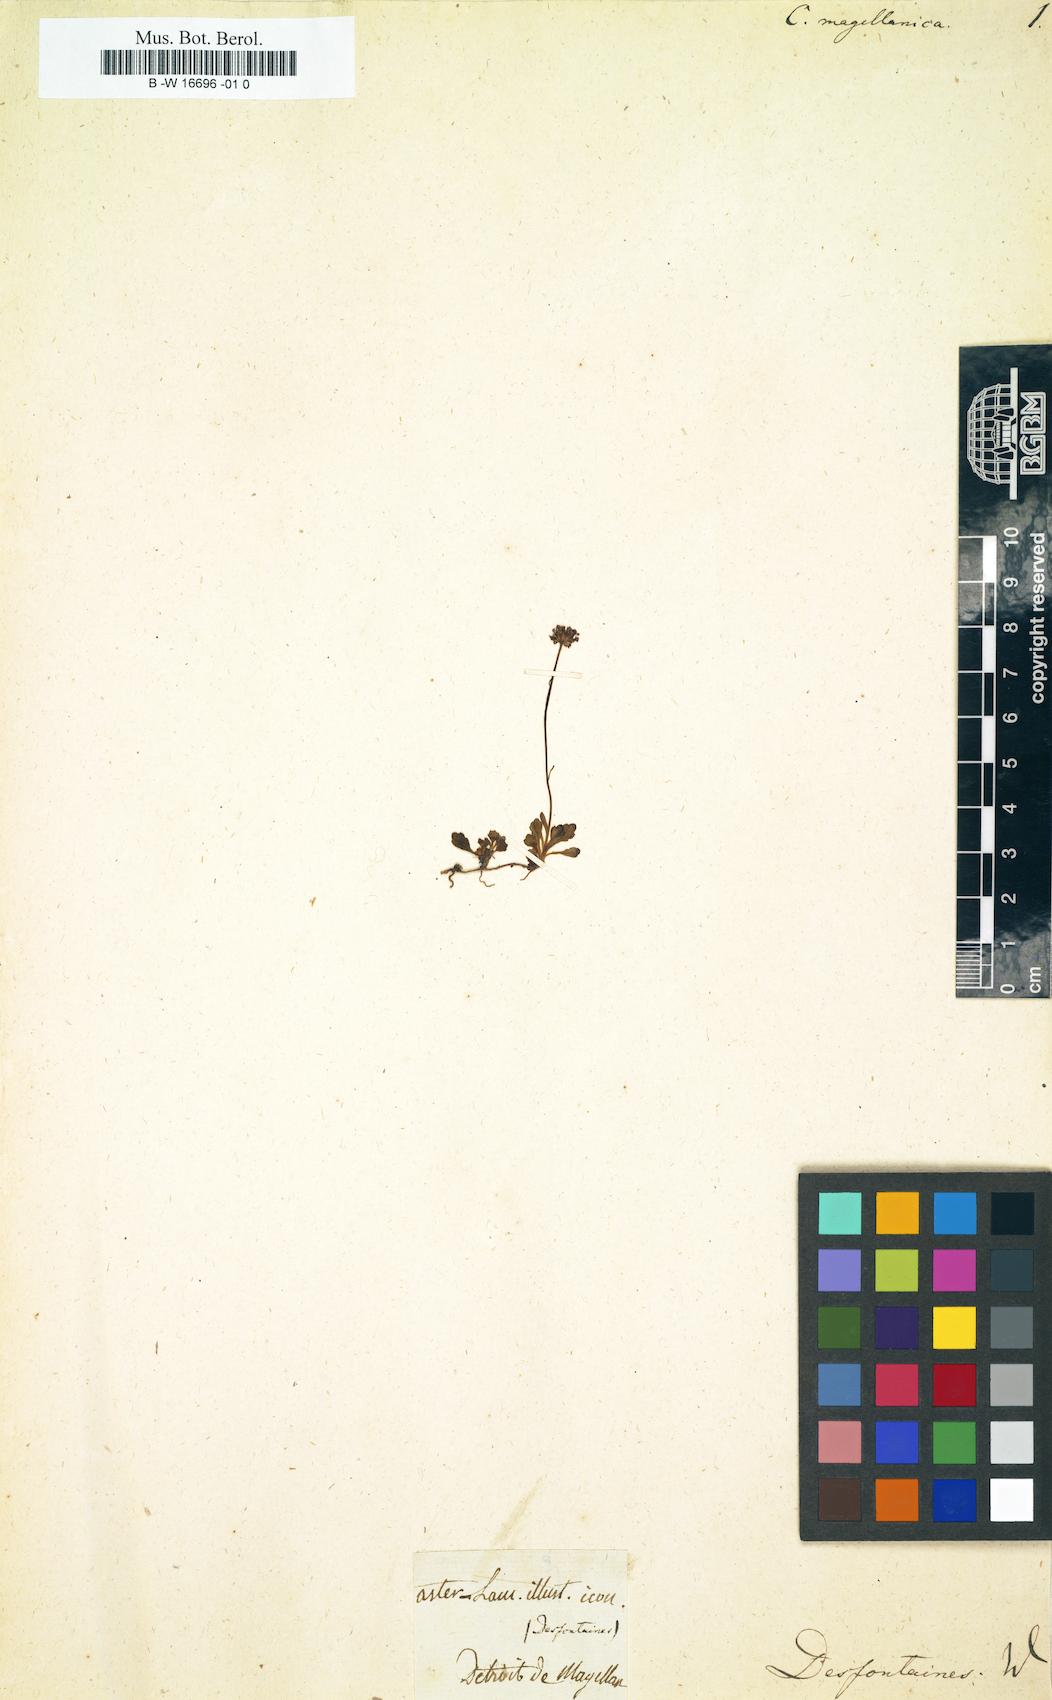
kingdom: Plantae
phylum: Tracheophyta
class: Magnoliopsida
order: Asterales
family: Asteraceae
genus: Lagenophora
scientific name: Lagenophora nudicaulis
